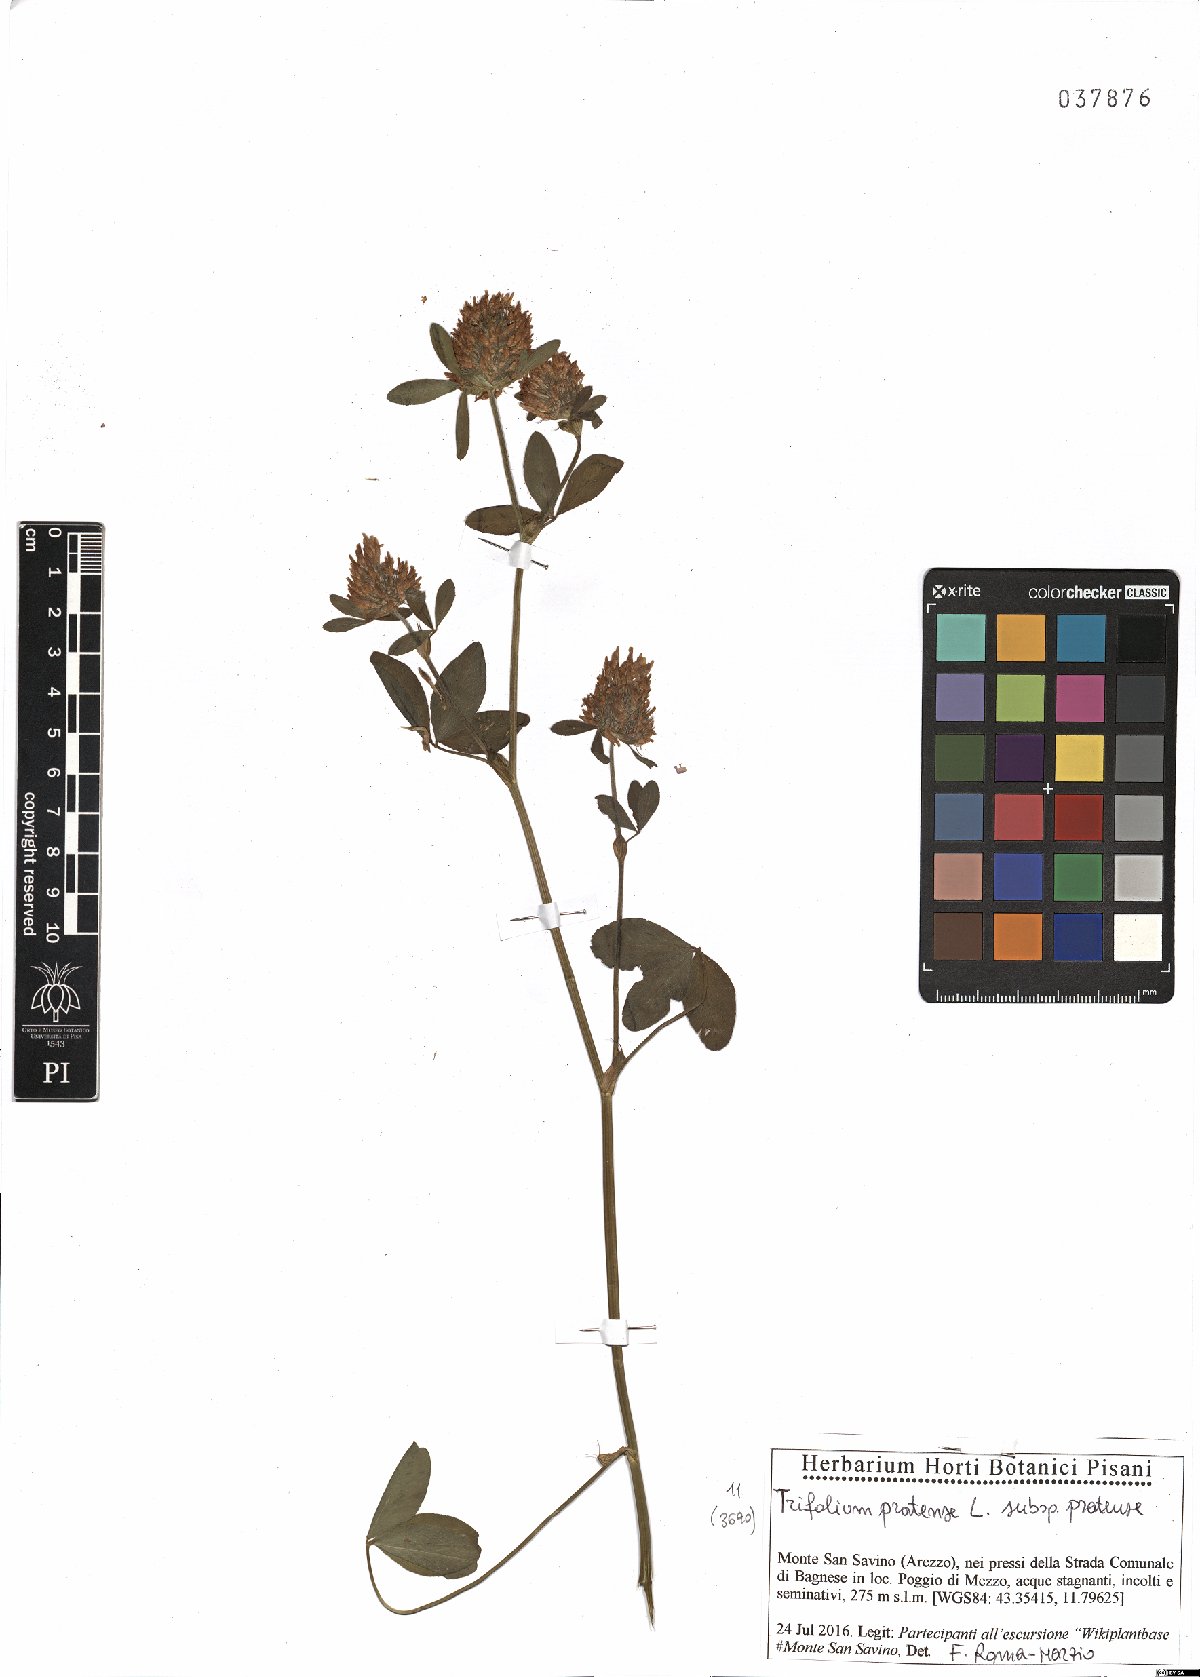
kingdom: Plantae
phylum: Tracheophyta
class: Magnoliopsida
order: Fabales
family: Fabaceae
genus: Trifolium
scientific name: Trifolium pratense
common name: Red clover
